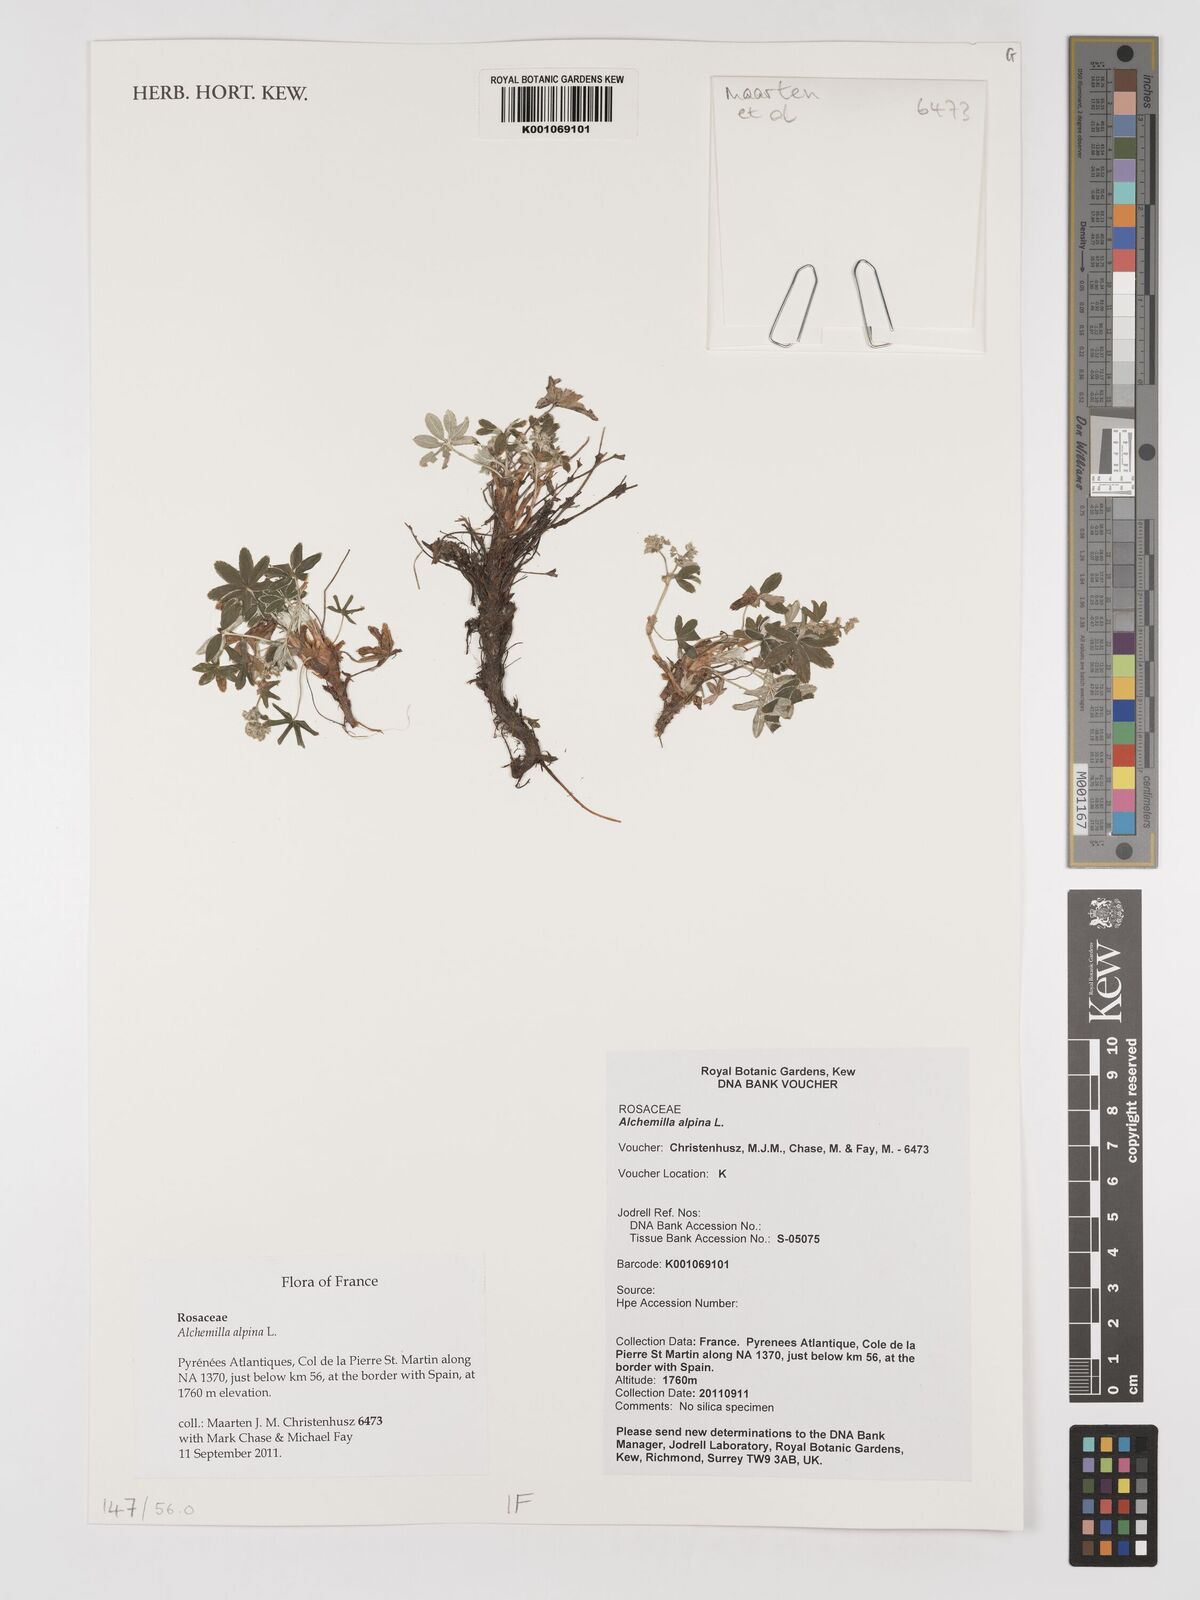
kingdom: Plantae
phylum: Tracheophyta
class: Magnoliopsida
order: Rosales
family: Rosaceae
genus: Alchemilla
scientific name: Alchemilla alpina
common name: Alpine lady's-mantle
